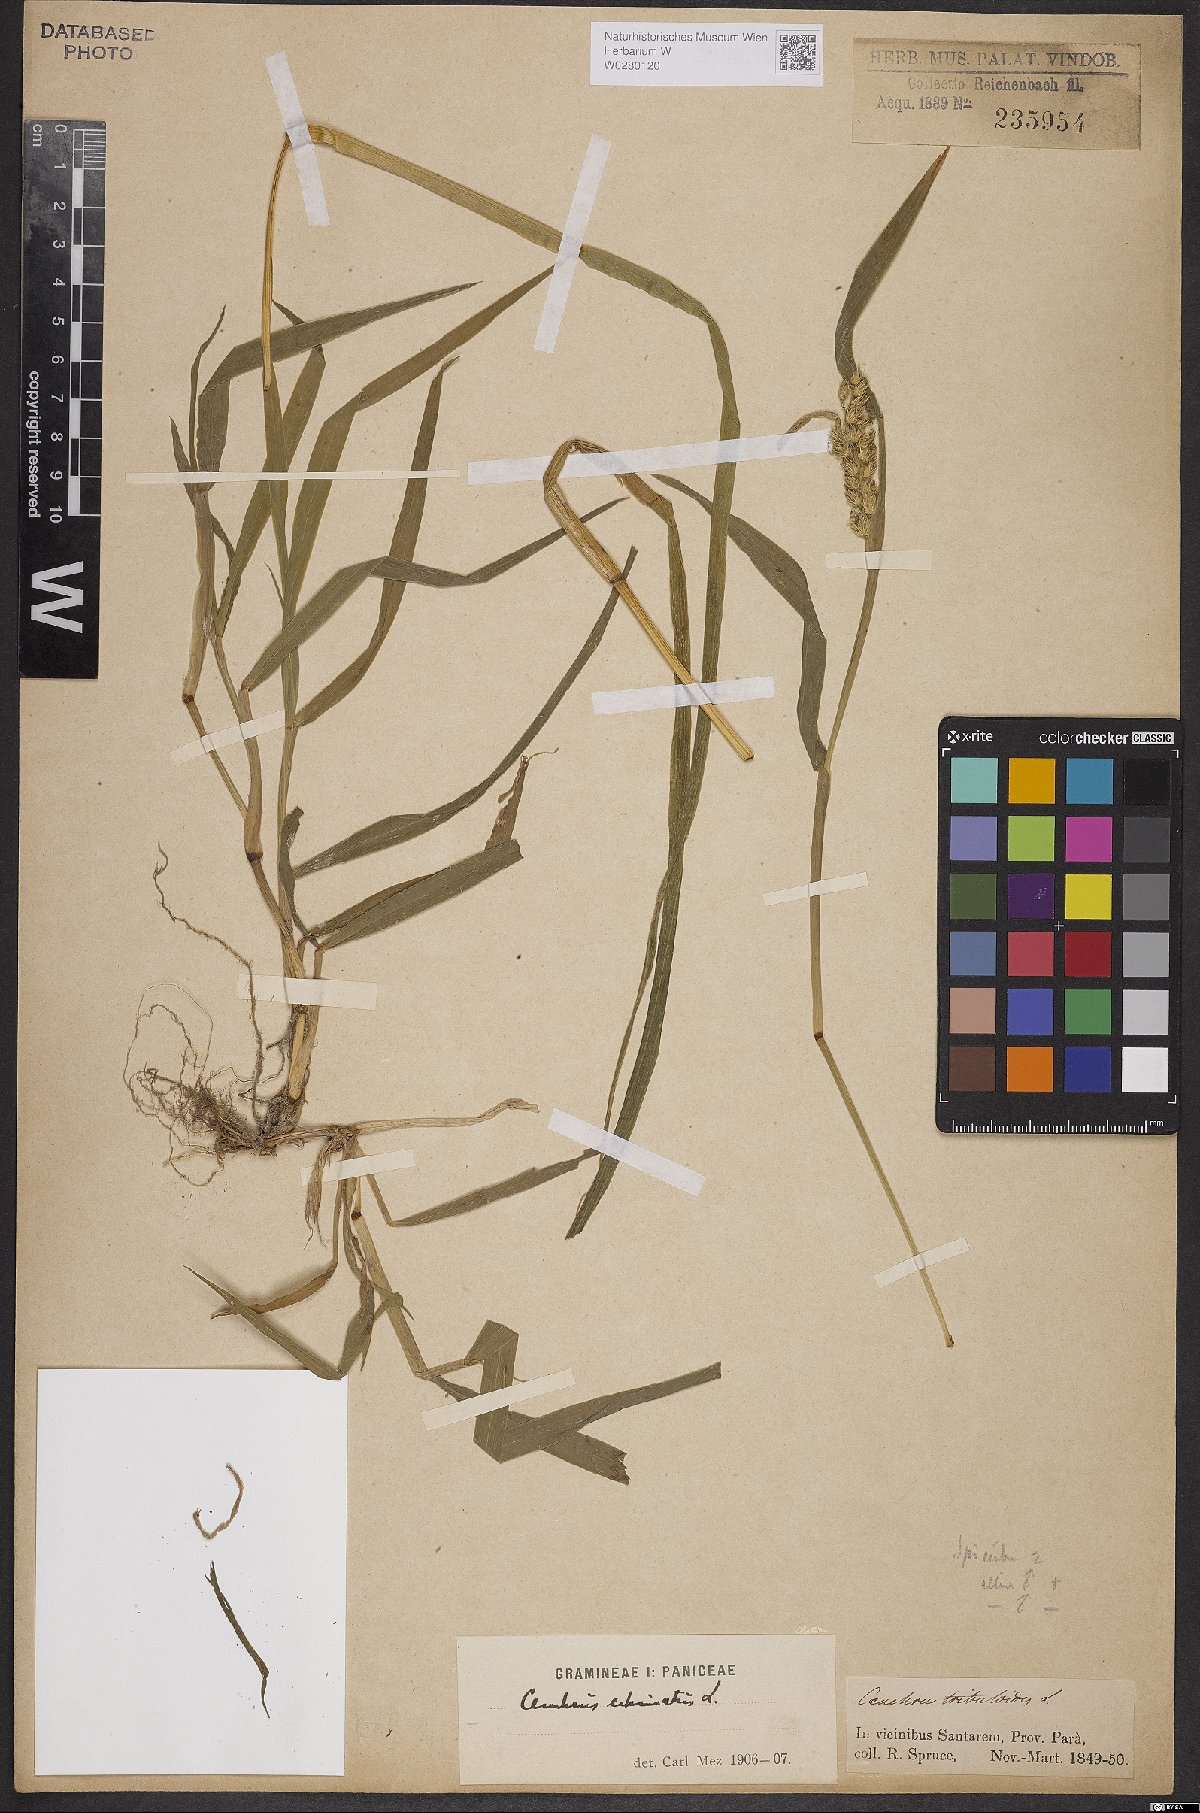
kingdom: Plantae
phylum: Tracheophyta
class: Liliopsida
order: Poales
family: Poaceae
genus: Cenchrus
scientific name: Cenchrus echinatus
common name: Southern sandbur
